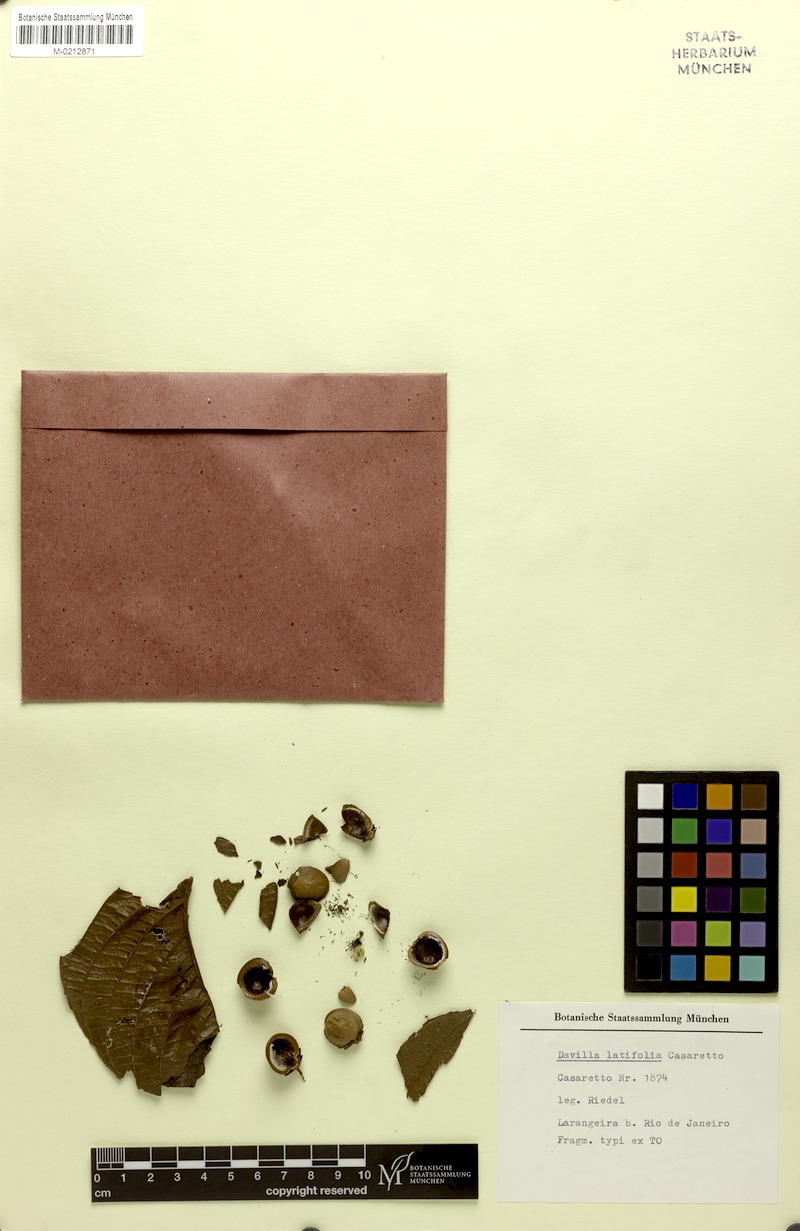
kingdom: Plantae
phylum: Tracheophyta
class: Magnoliopsida
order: Dilleniales
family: Dilleniaceae
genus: Davilla
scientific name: Davilla latifolia
